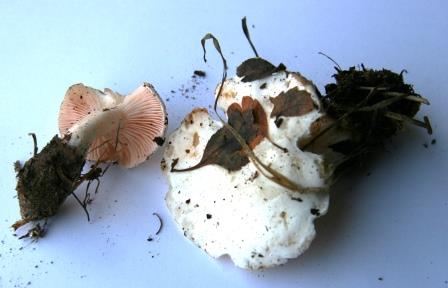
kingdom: Fungi
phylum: Basidiomycota
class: Agaricomycetes
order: Agaricales
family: Tricholomataceae
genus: Pseudoclitopilus
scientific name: Pseudoclitopilus rhodoleucus
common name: rosabladet tragtridderhat
